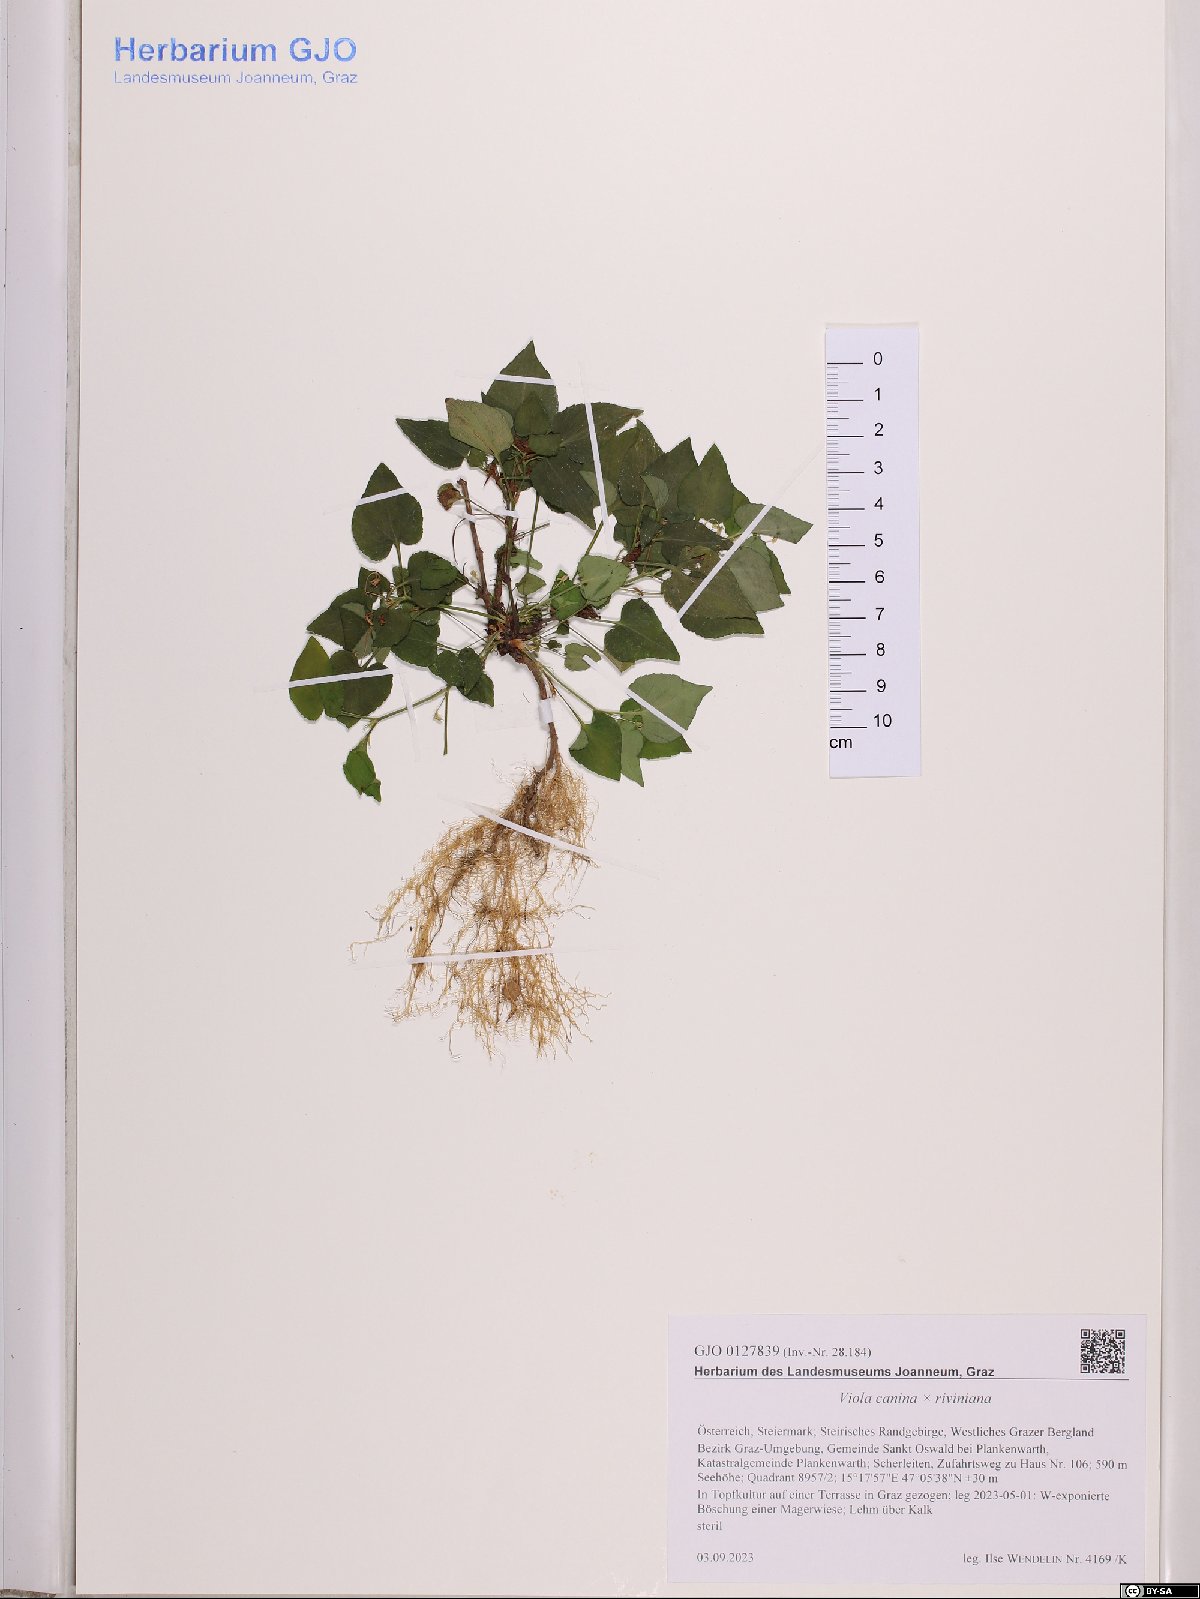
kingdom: Plantae
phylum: Tracheophyta
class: Magnoliopsida
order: Malpighiales
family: Violaceae
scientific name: Violaceae
